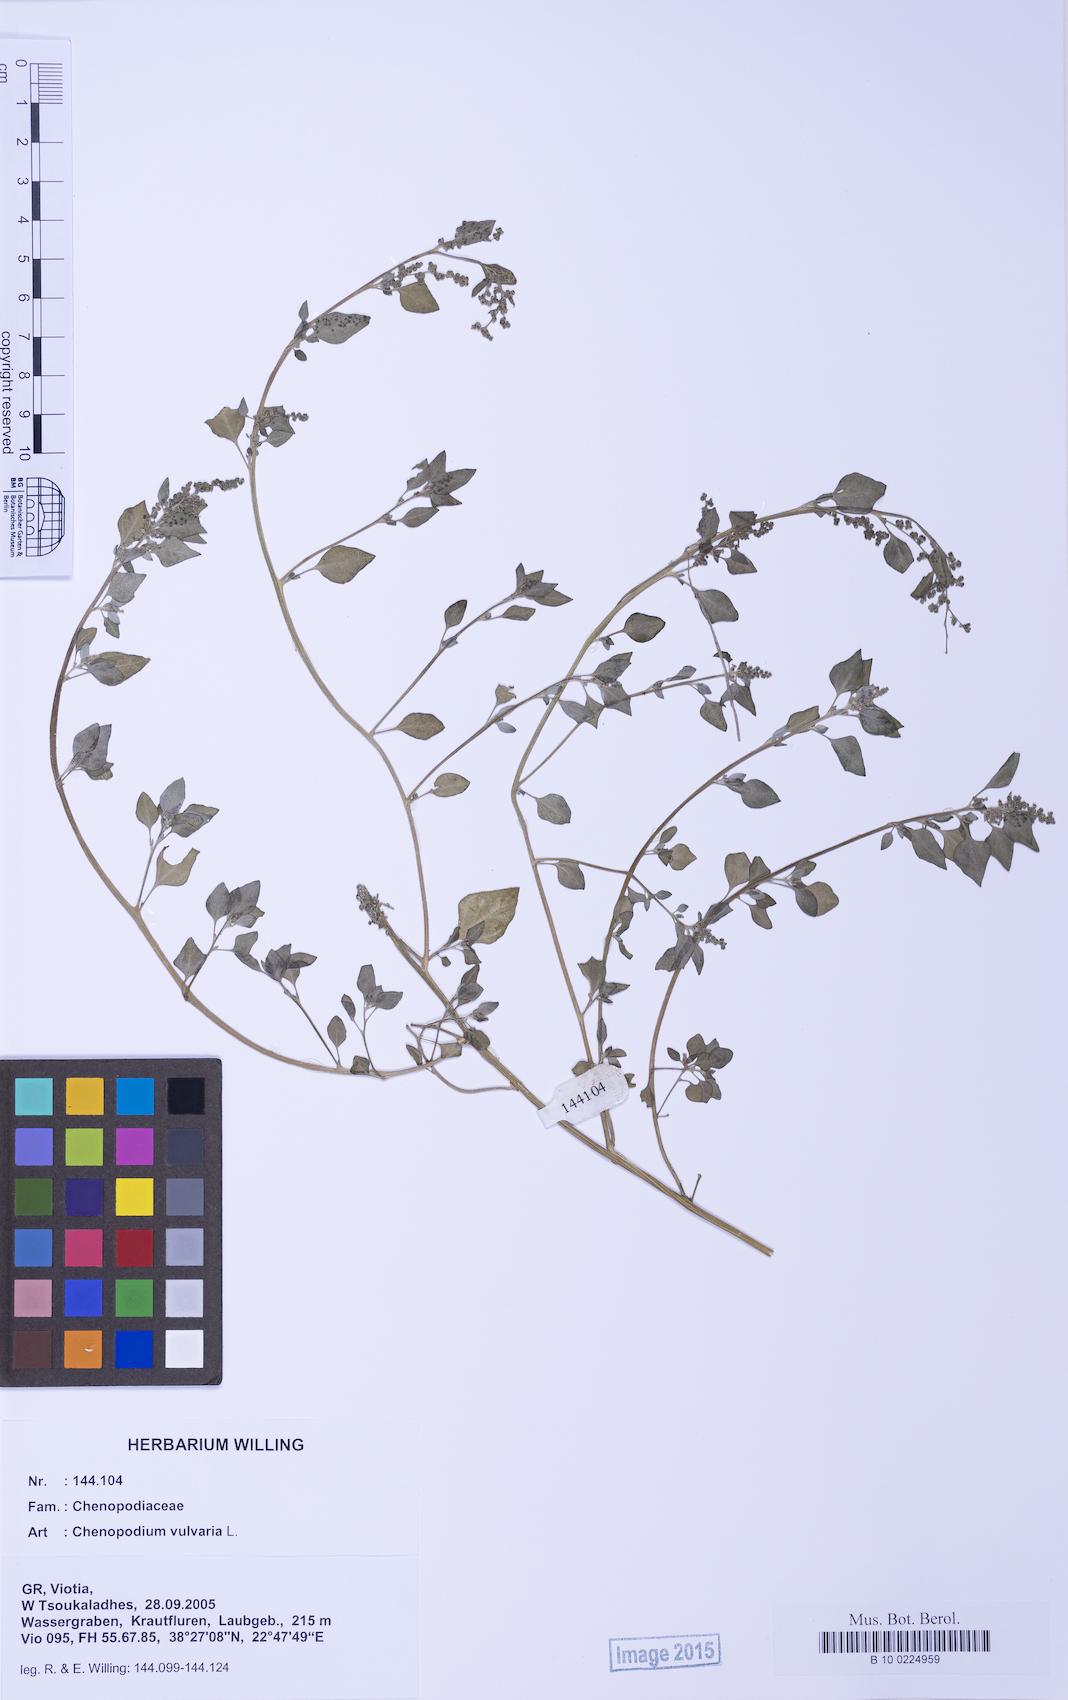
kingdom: Plantae
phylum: Tracheophyta
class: Magnoliopsida
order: Caryophyllales
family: Amaranthaceae
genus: Chenopodium
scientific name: Chenopodium vulvaria
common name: Stinking goosefoot
